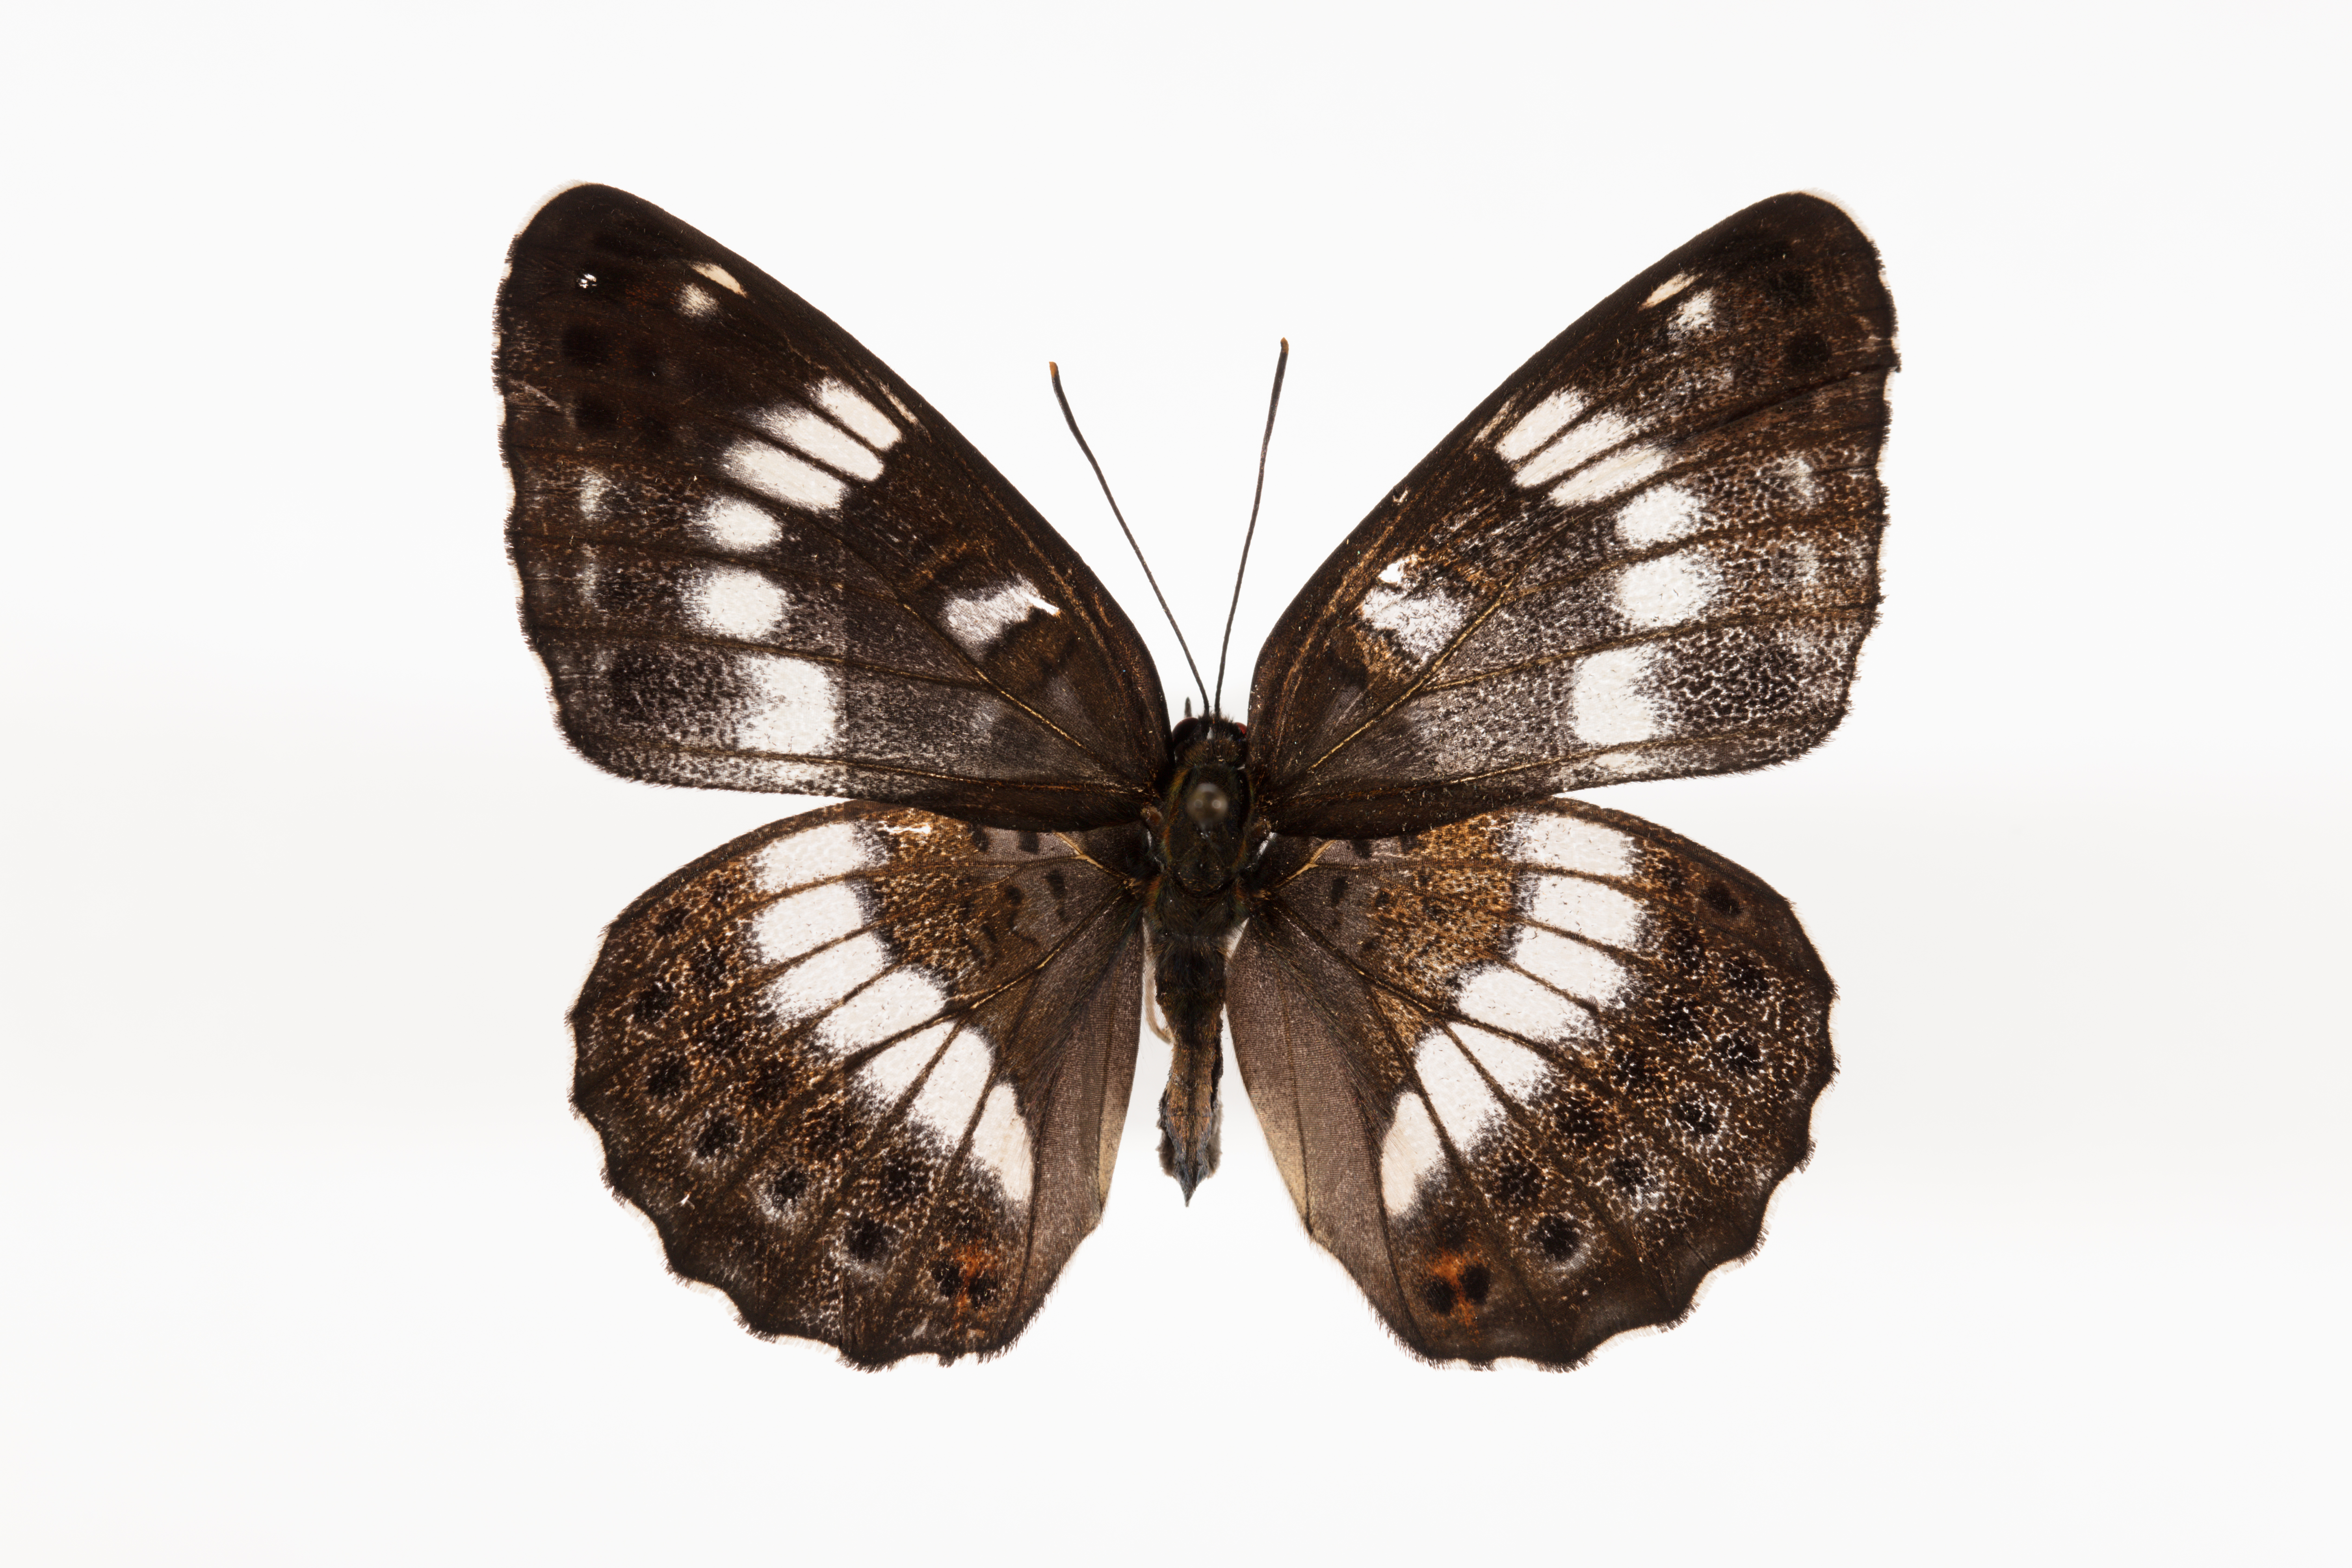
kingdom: Animalia
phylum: Arthropoda
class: Insecta
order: Lepidoptera
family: Nymphalidae
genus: Ladoga
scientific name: Ladoga camilla
